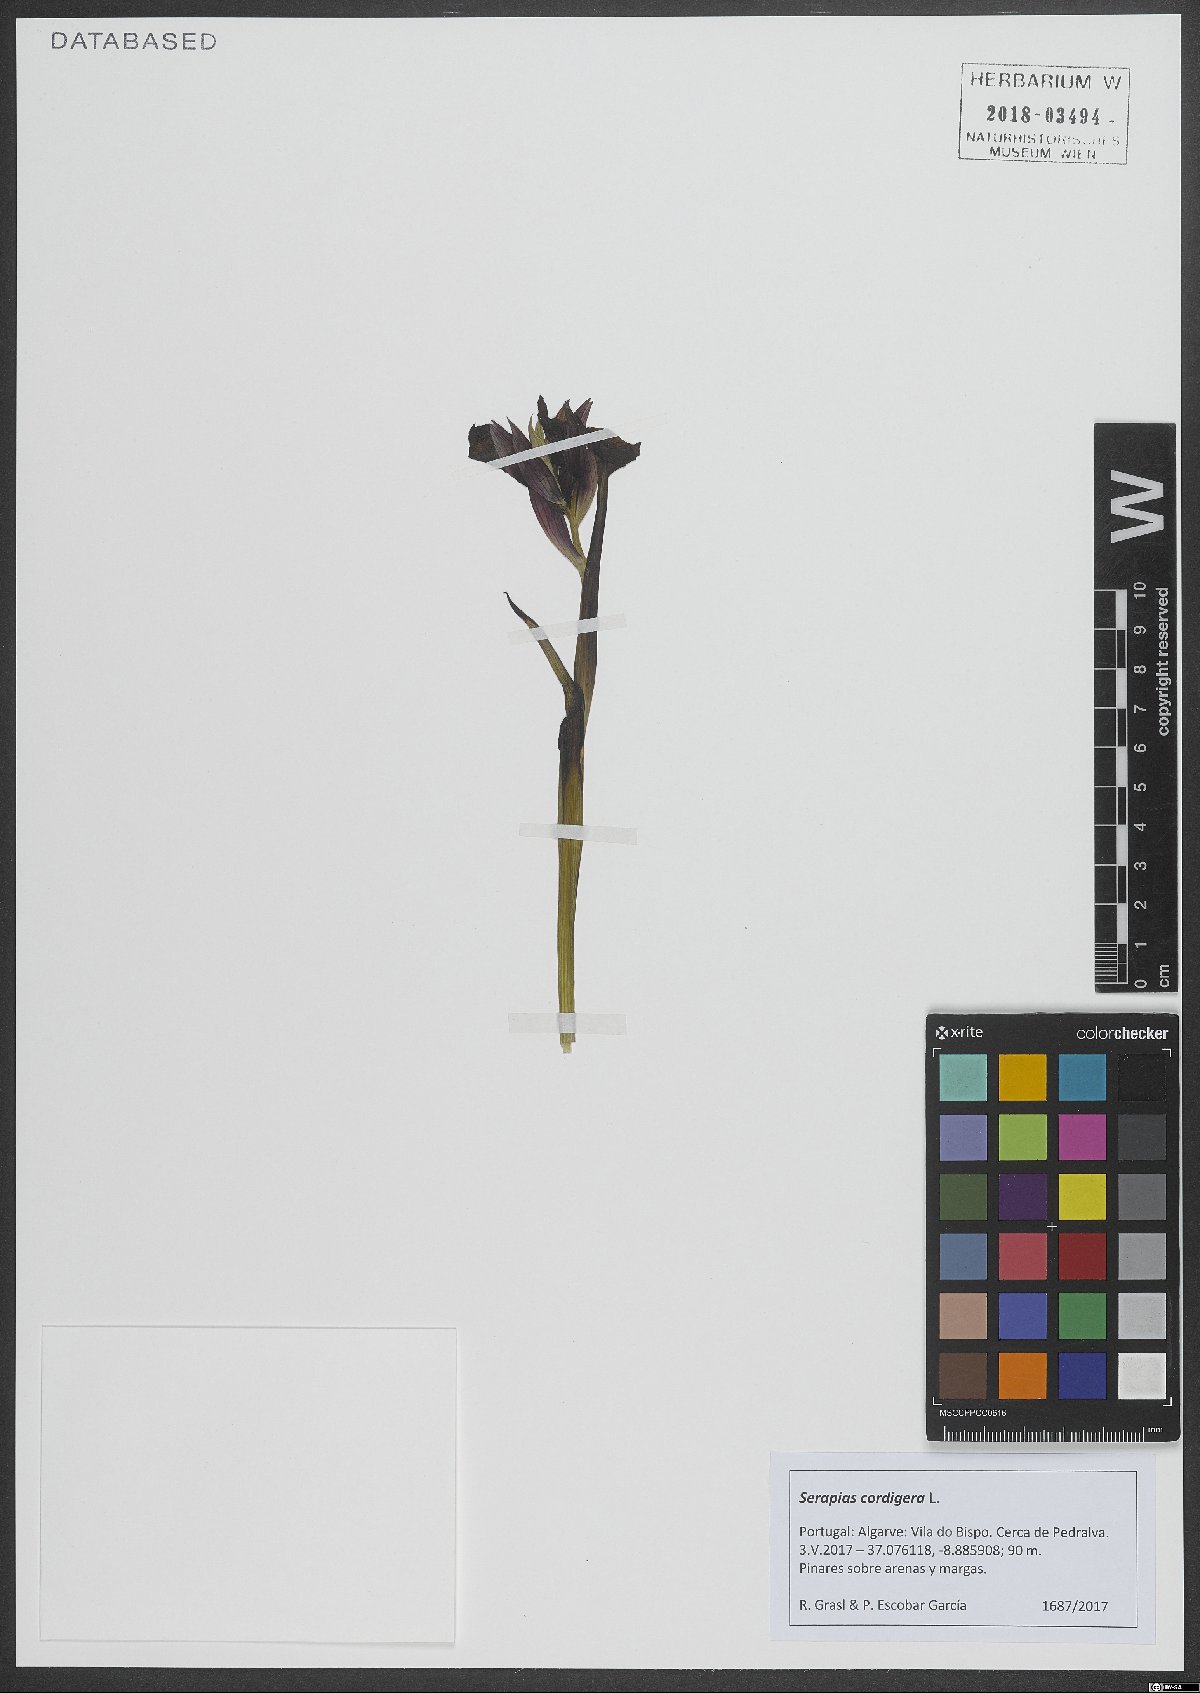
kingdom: Plantae
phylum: Tracheophyta
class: Liliopsida
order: Asparagales
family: Orchidaceae
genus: Serapias
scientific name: Serapias cordigera
